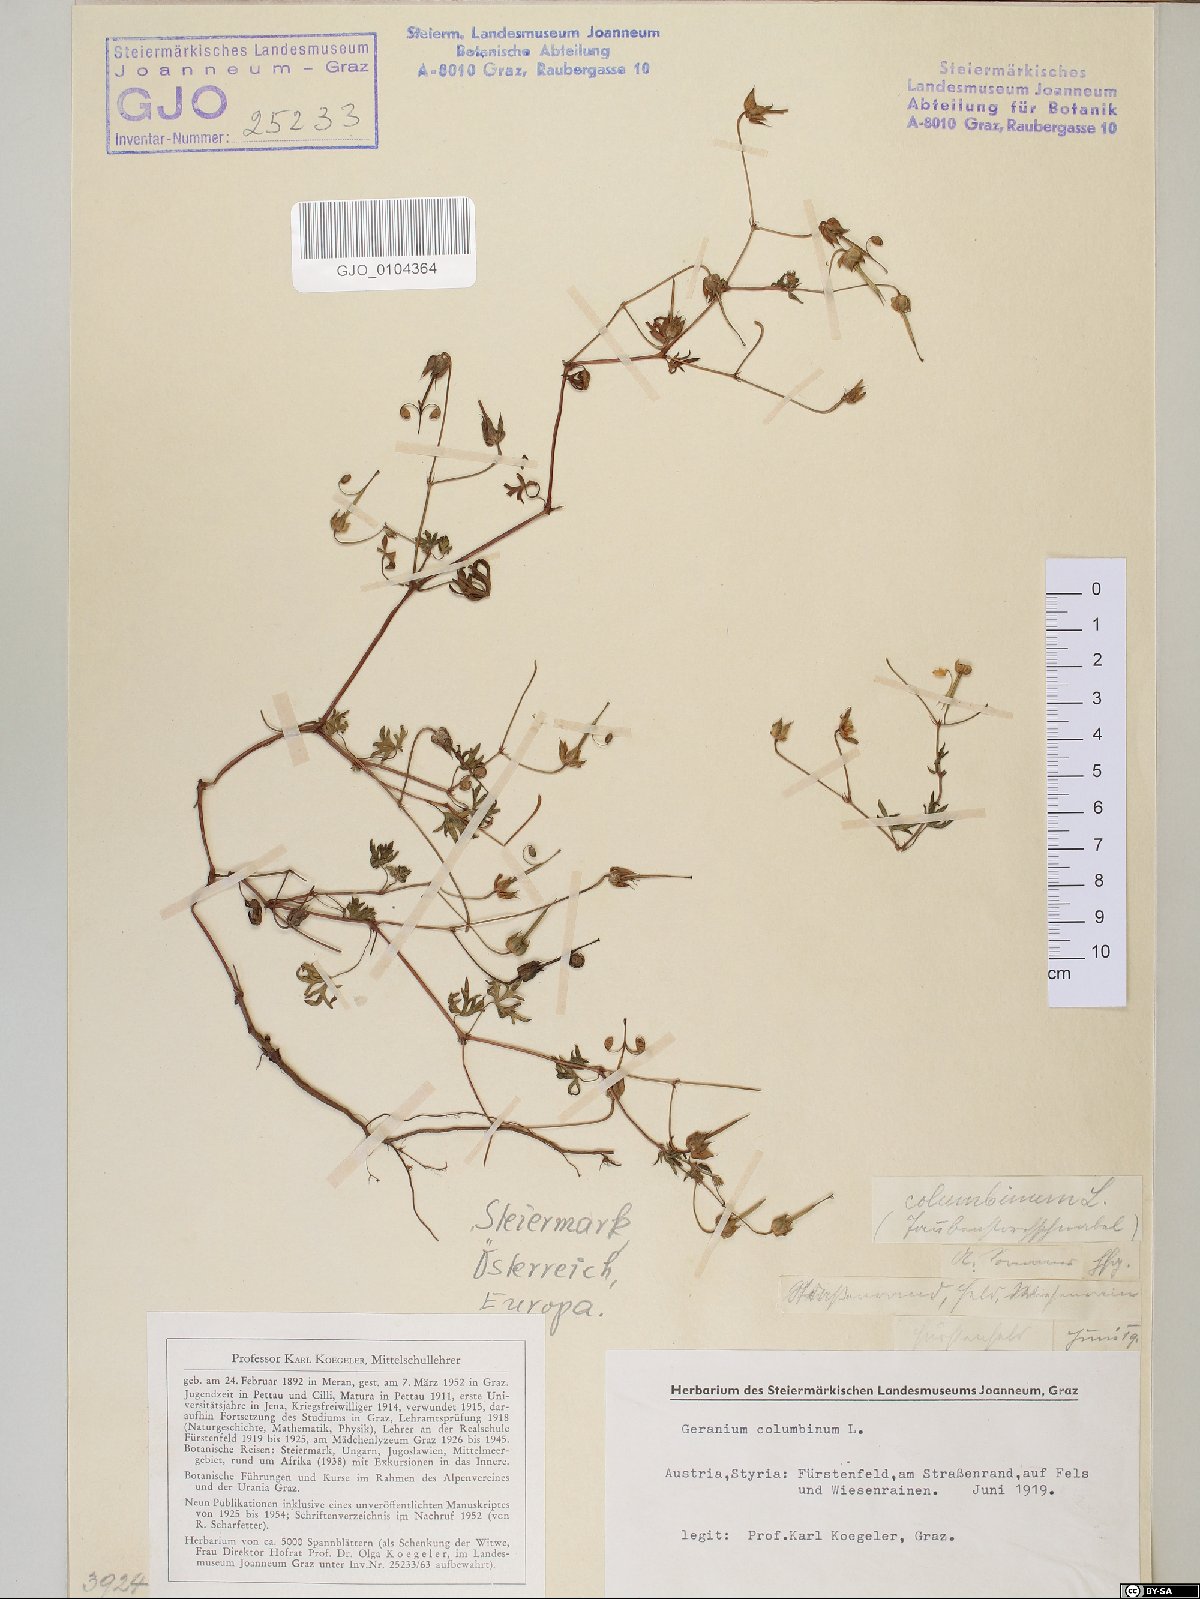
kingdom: Plantae
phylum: Tracheophyta
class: Magnoliopsida
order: Geraniales
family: Geraniaceae
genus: Geranium
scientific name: Geranium columbinum
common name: Long-stalked crane's-bill
